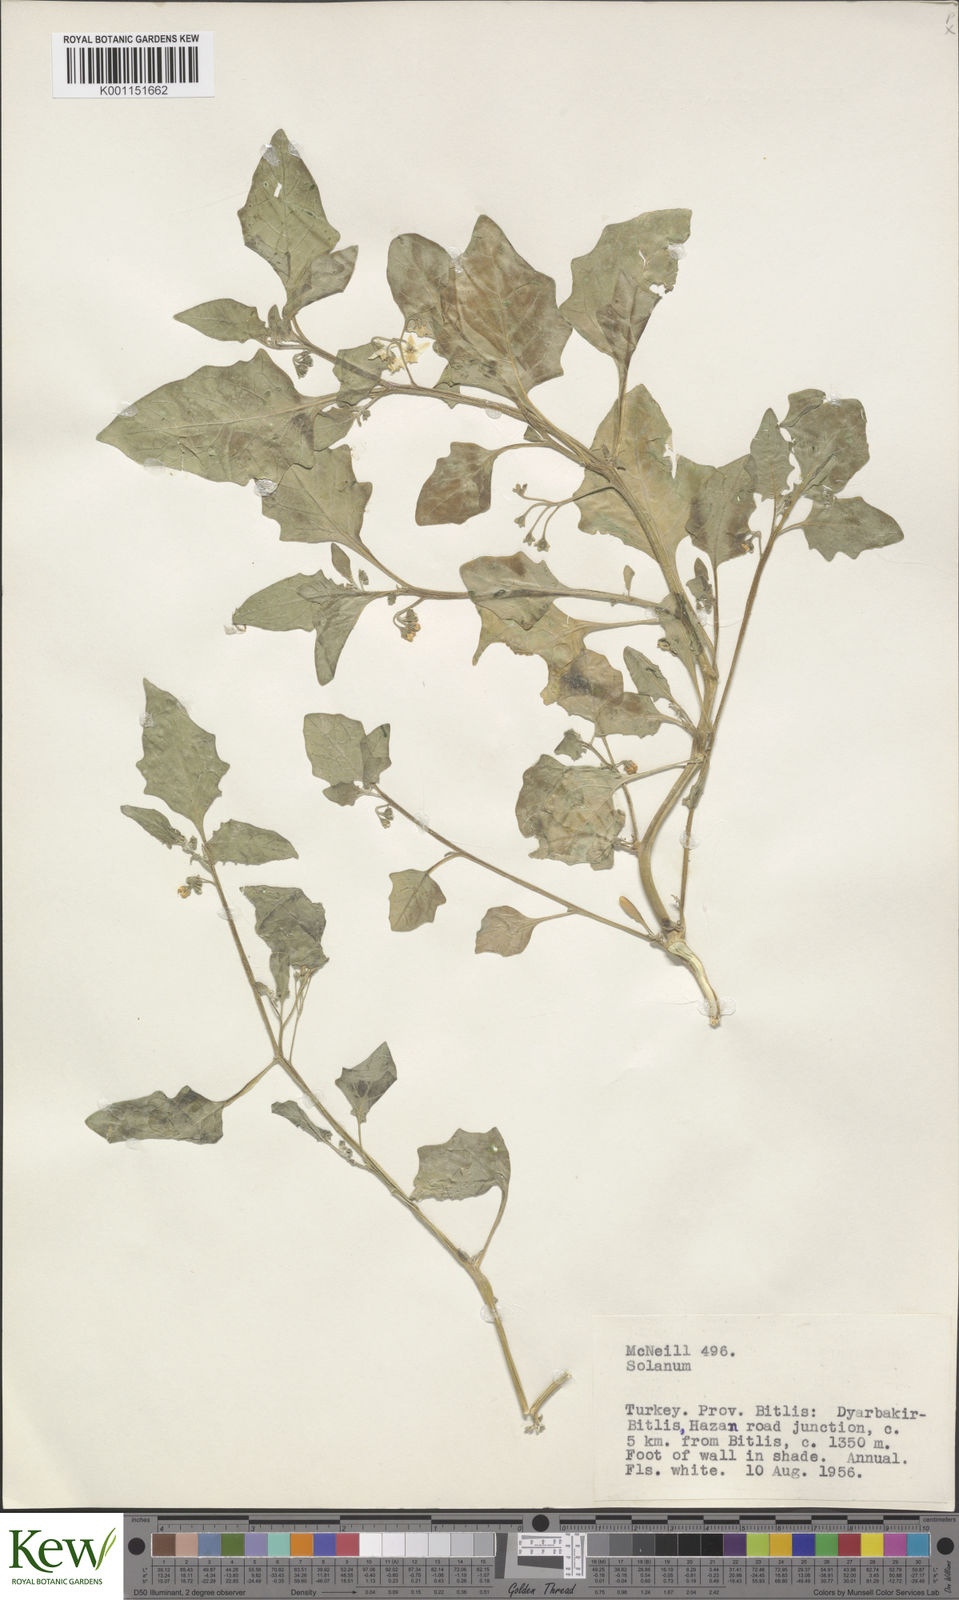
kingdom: Plantae
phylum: Tracheophyta
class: Magnoliopsida
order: Solanales
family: Solanaceae
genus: Solanum
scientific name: Solanum villosum
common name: Red nightshade
